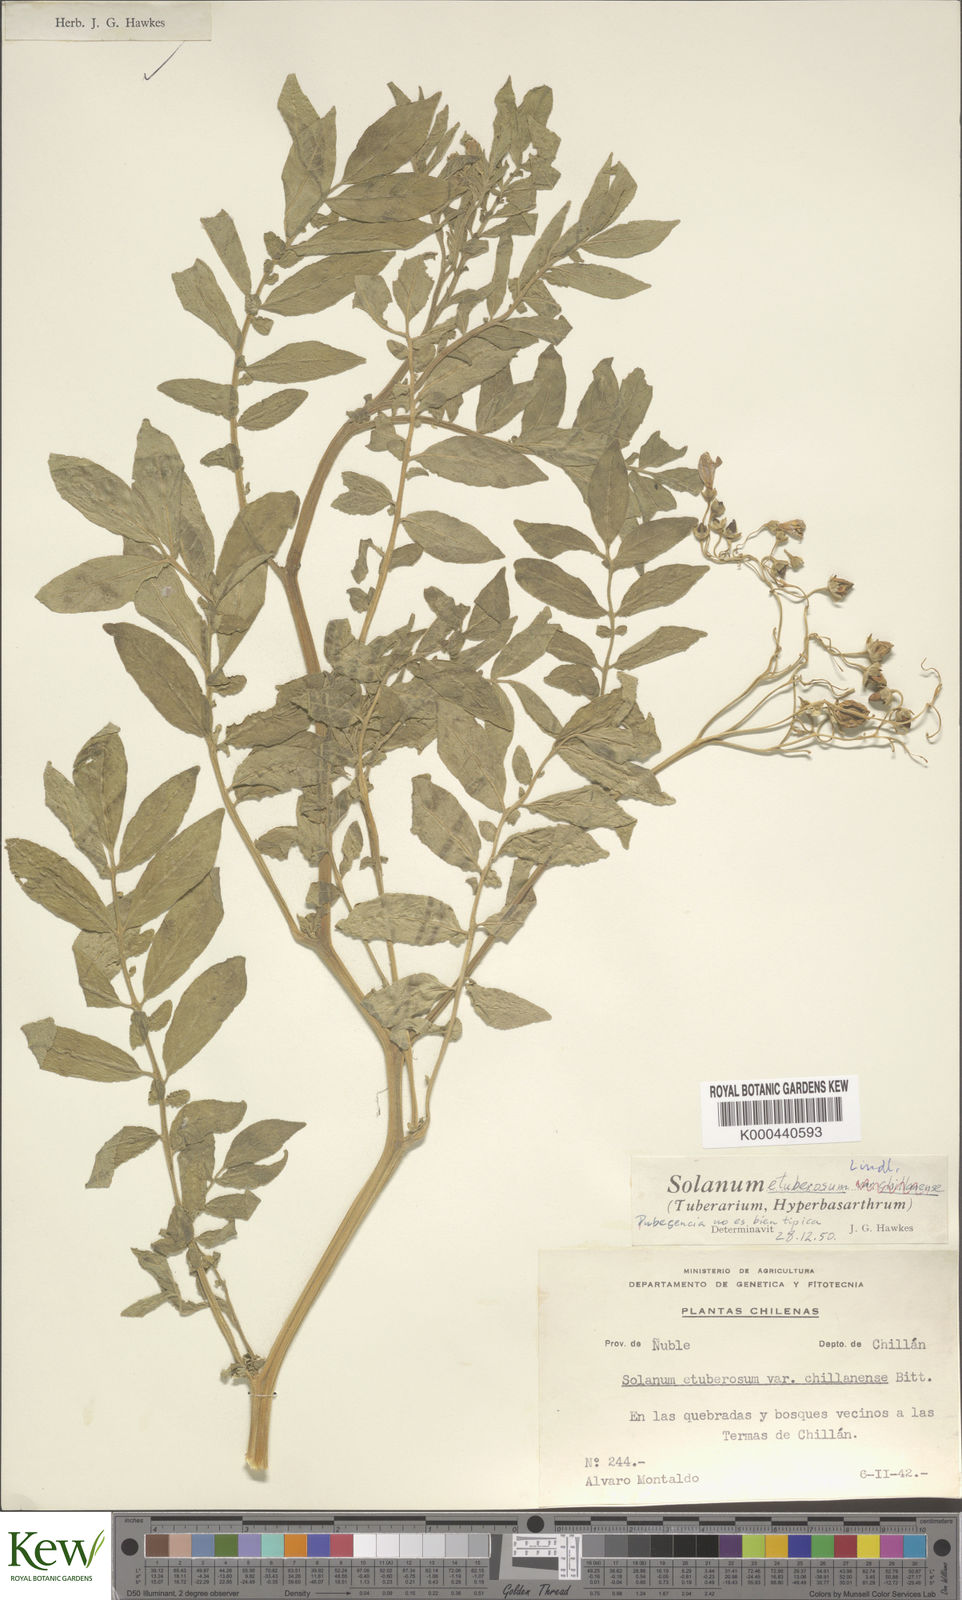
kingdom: Plantae
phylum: Tracheophyta
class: Magnoliopsida
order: Solanales
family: Solanaceae
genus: Solanum
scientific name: Solanum etuberosum
